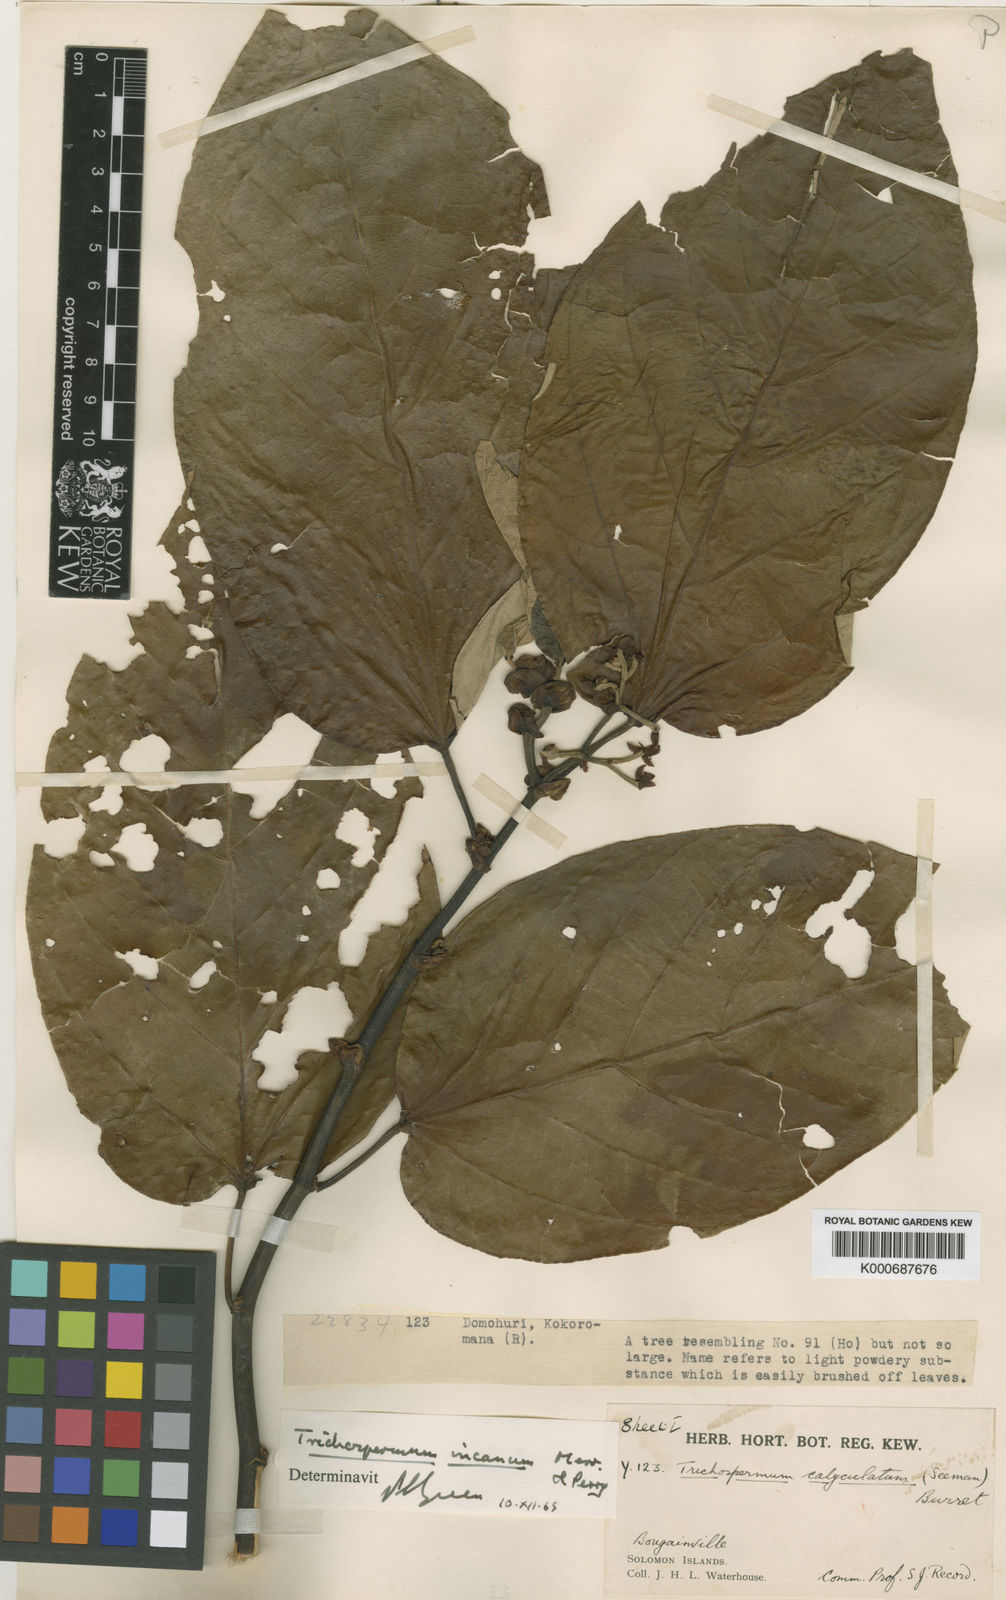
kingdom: Plantae
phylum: Tracheophyta
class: Magnoliopsida
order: Malvales
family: Malvaceae
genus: Trichospermum
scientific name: Trichospermum incaniopsis
